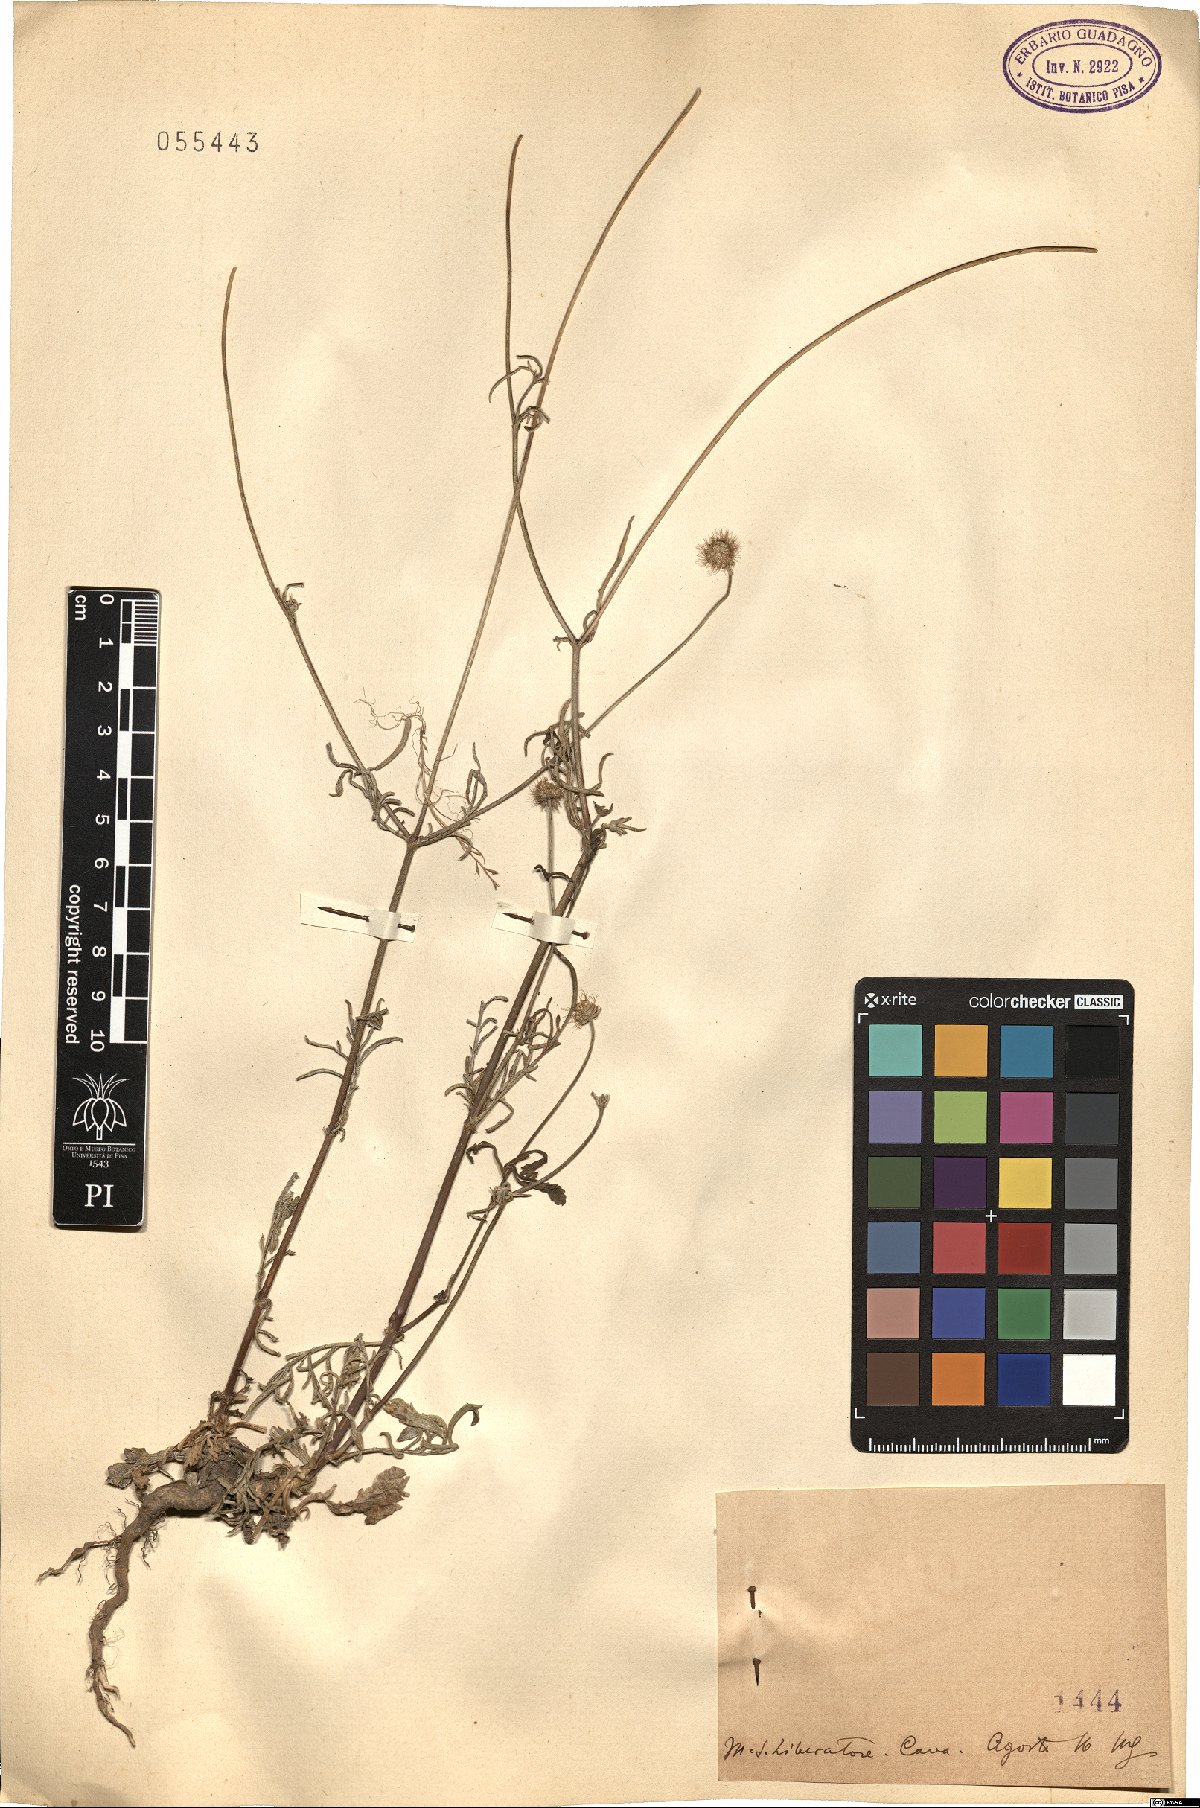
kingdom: Plantae
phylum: Tracheophyta
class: Magnoliopsida
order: Dipsacales
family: Caprifoliaceae
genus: Scabiosa
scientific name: Scabiosa
